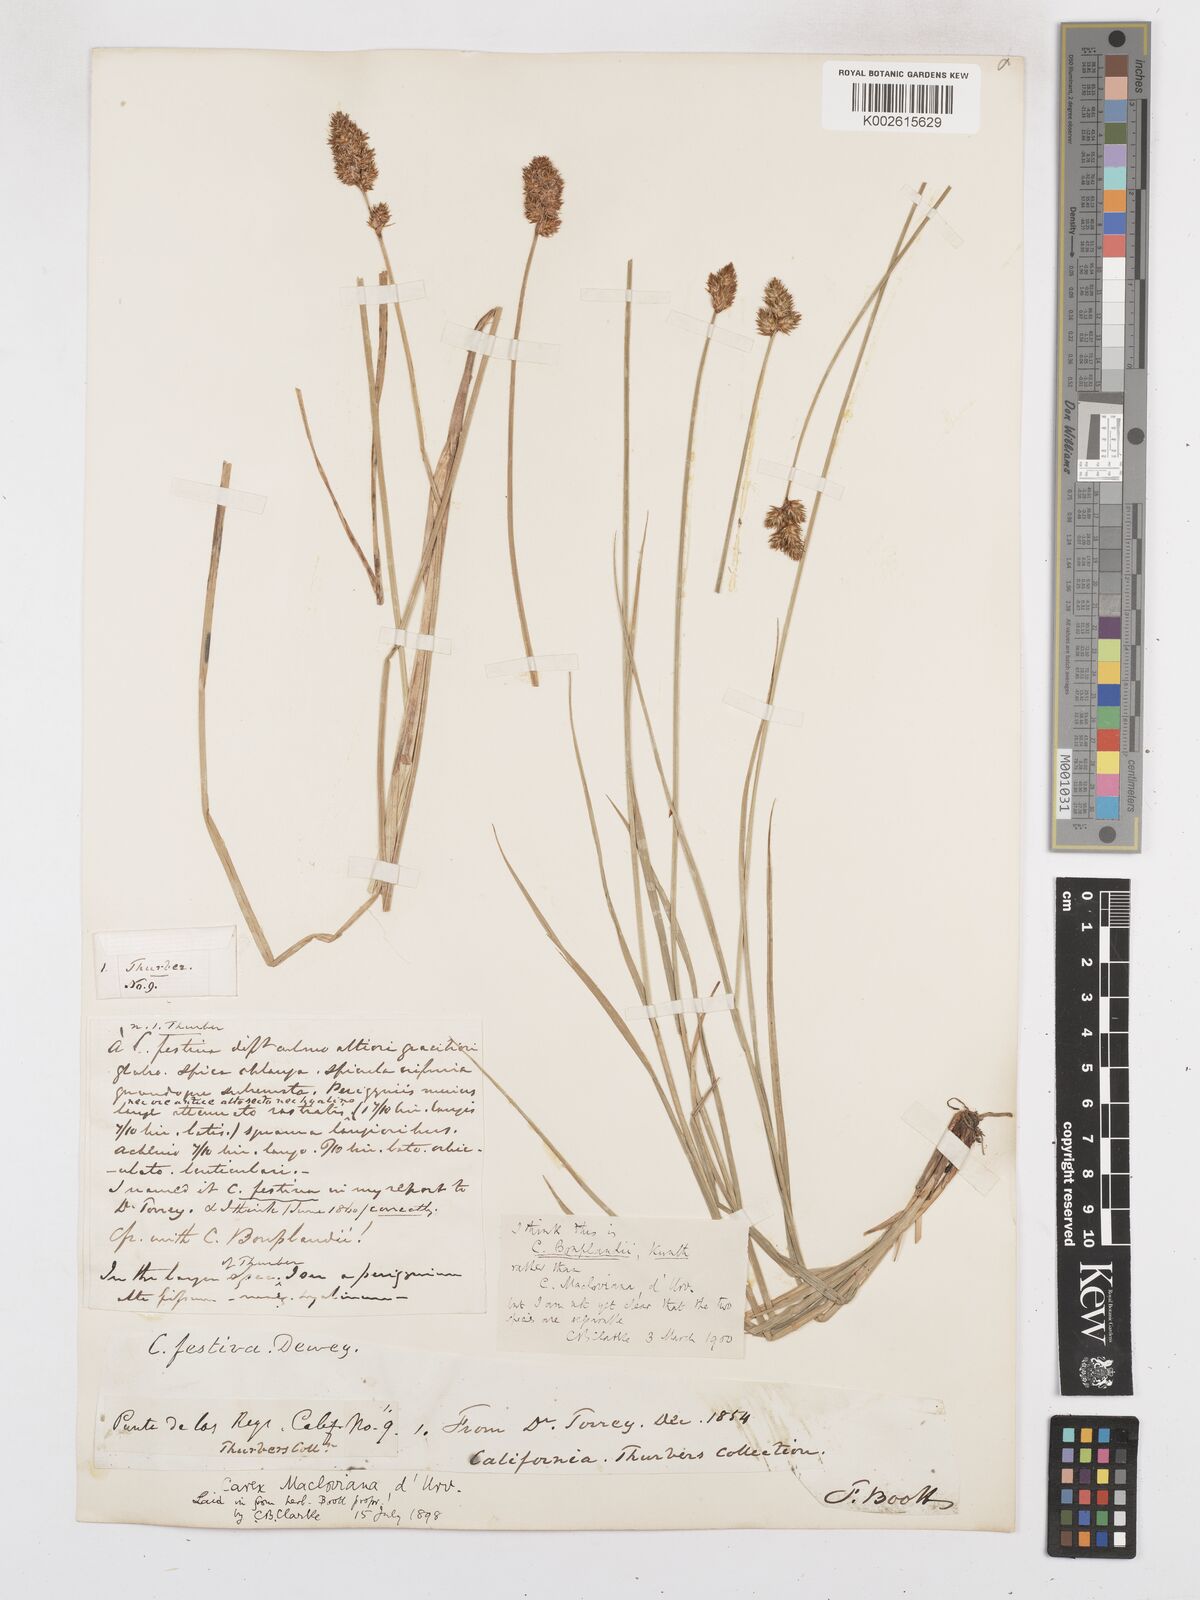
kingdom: Plantae
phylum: Tracheophyta
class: Liliopsida
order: Poales
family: Cyperaceae
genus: Carex
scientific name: Carex illota
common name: Sheep sedge
